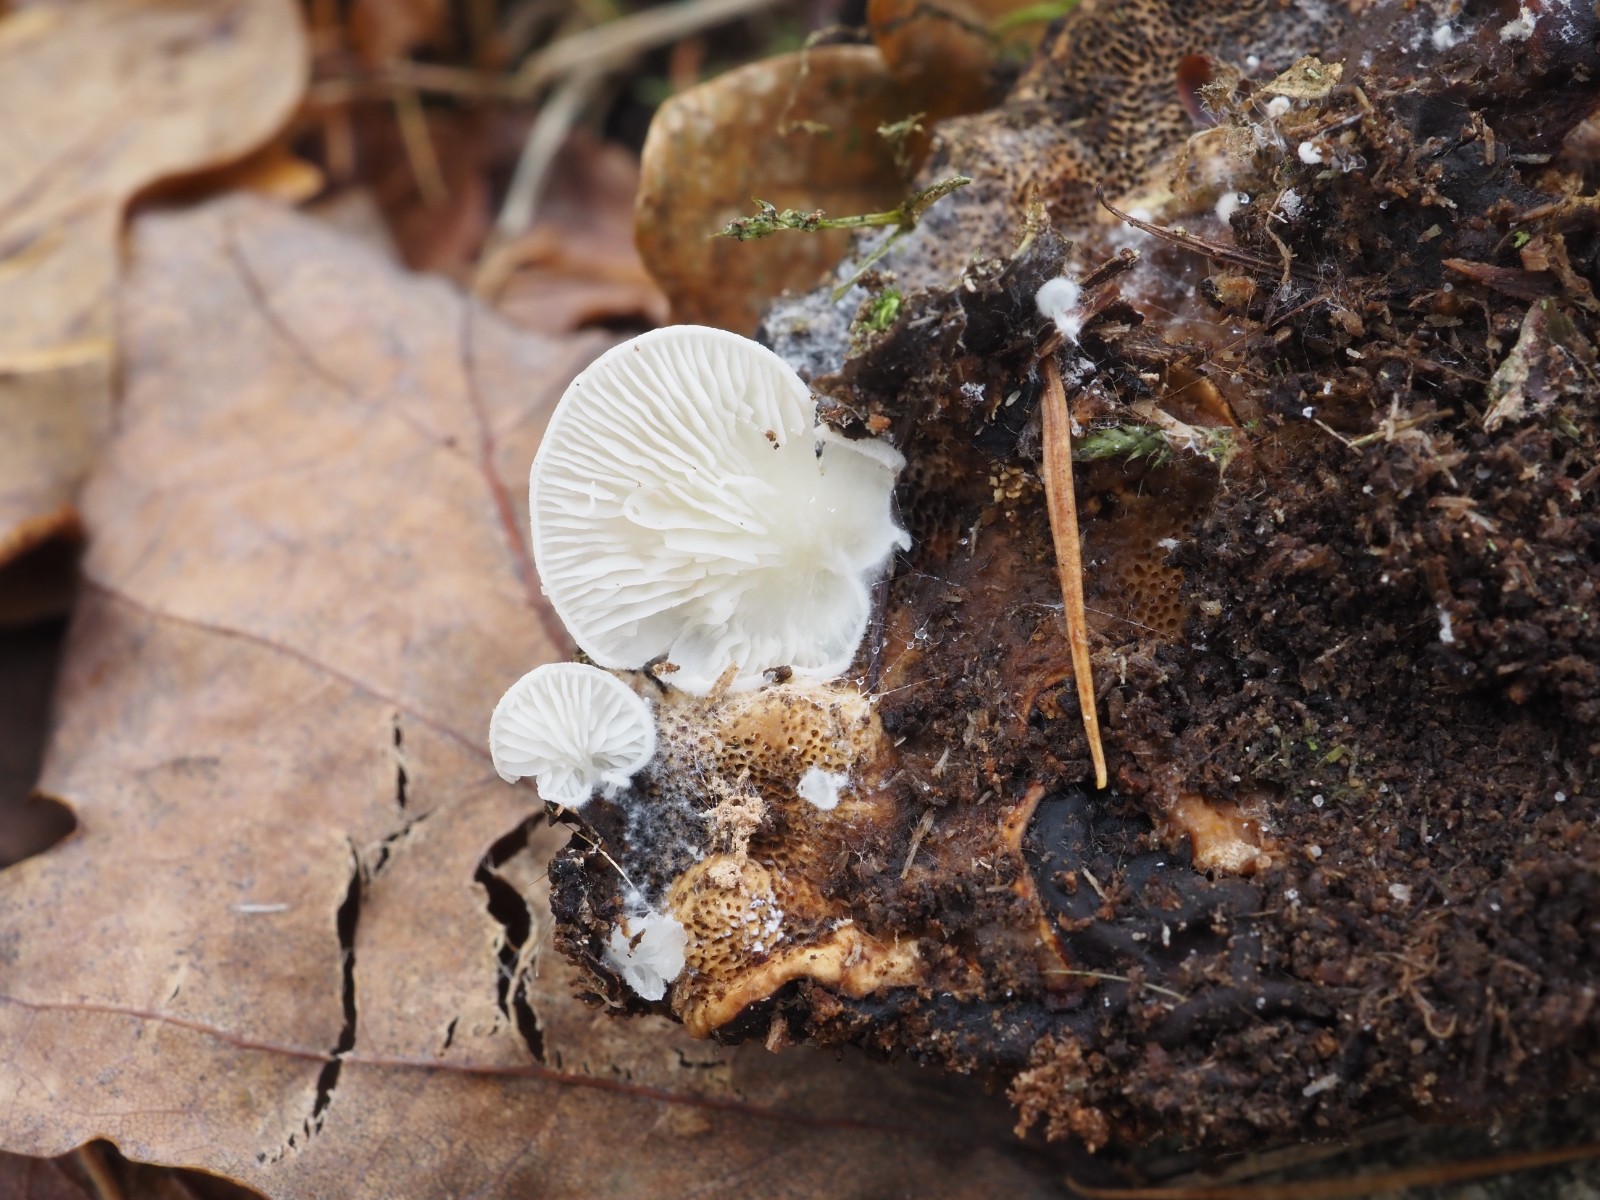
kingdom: Fungi
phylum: Basidiomycota
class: Agaricomycetes
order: Agaricales
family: Entolomataceae
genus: Clitopilus
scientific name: Clitopilus hobsonii
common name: Miller's oysterling
